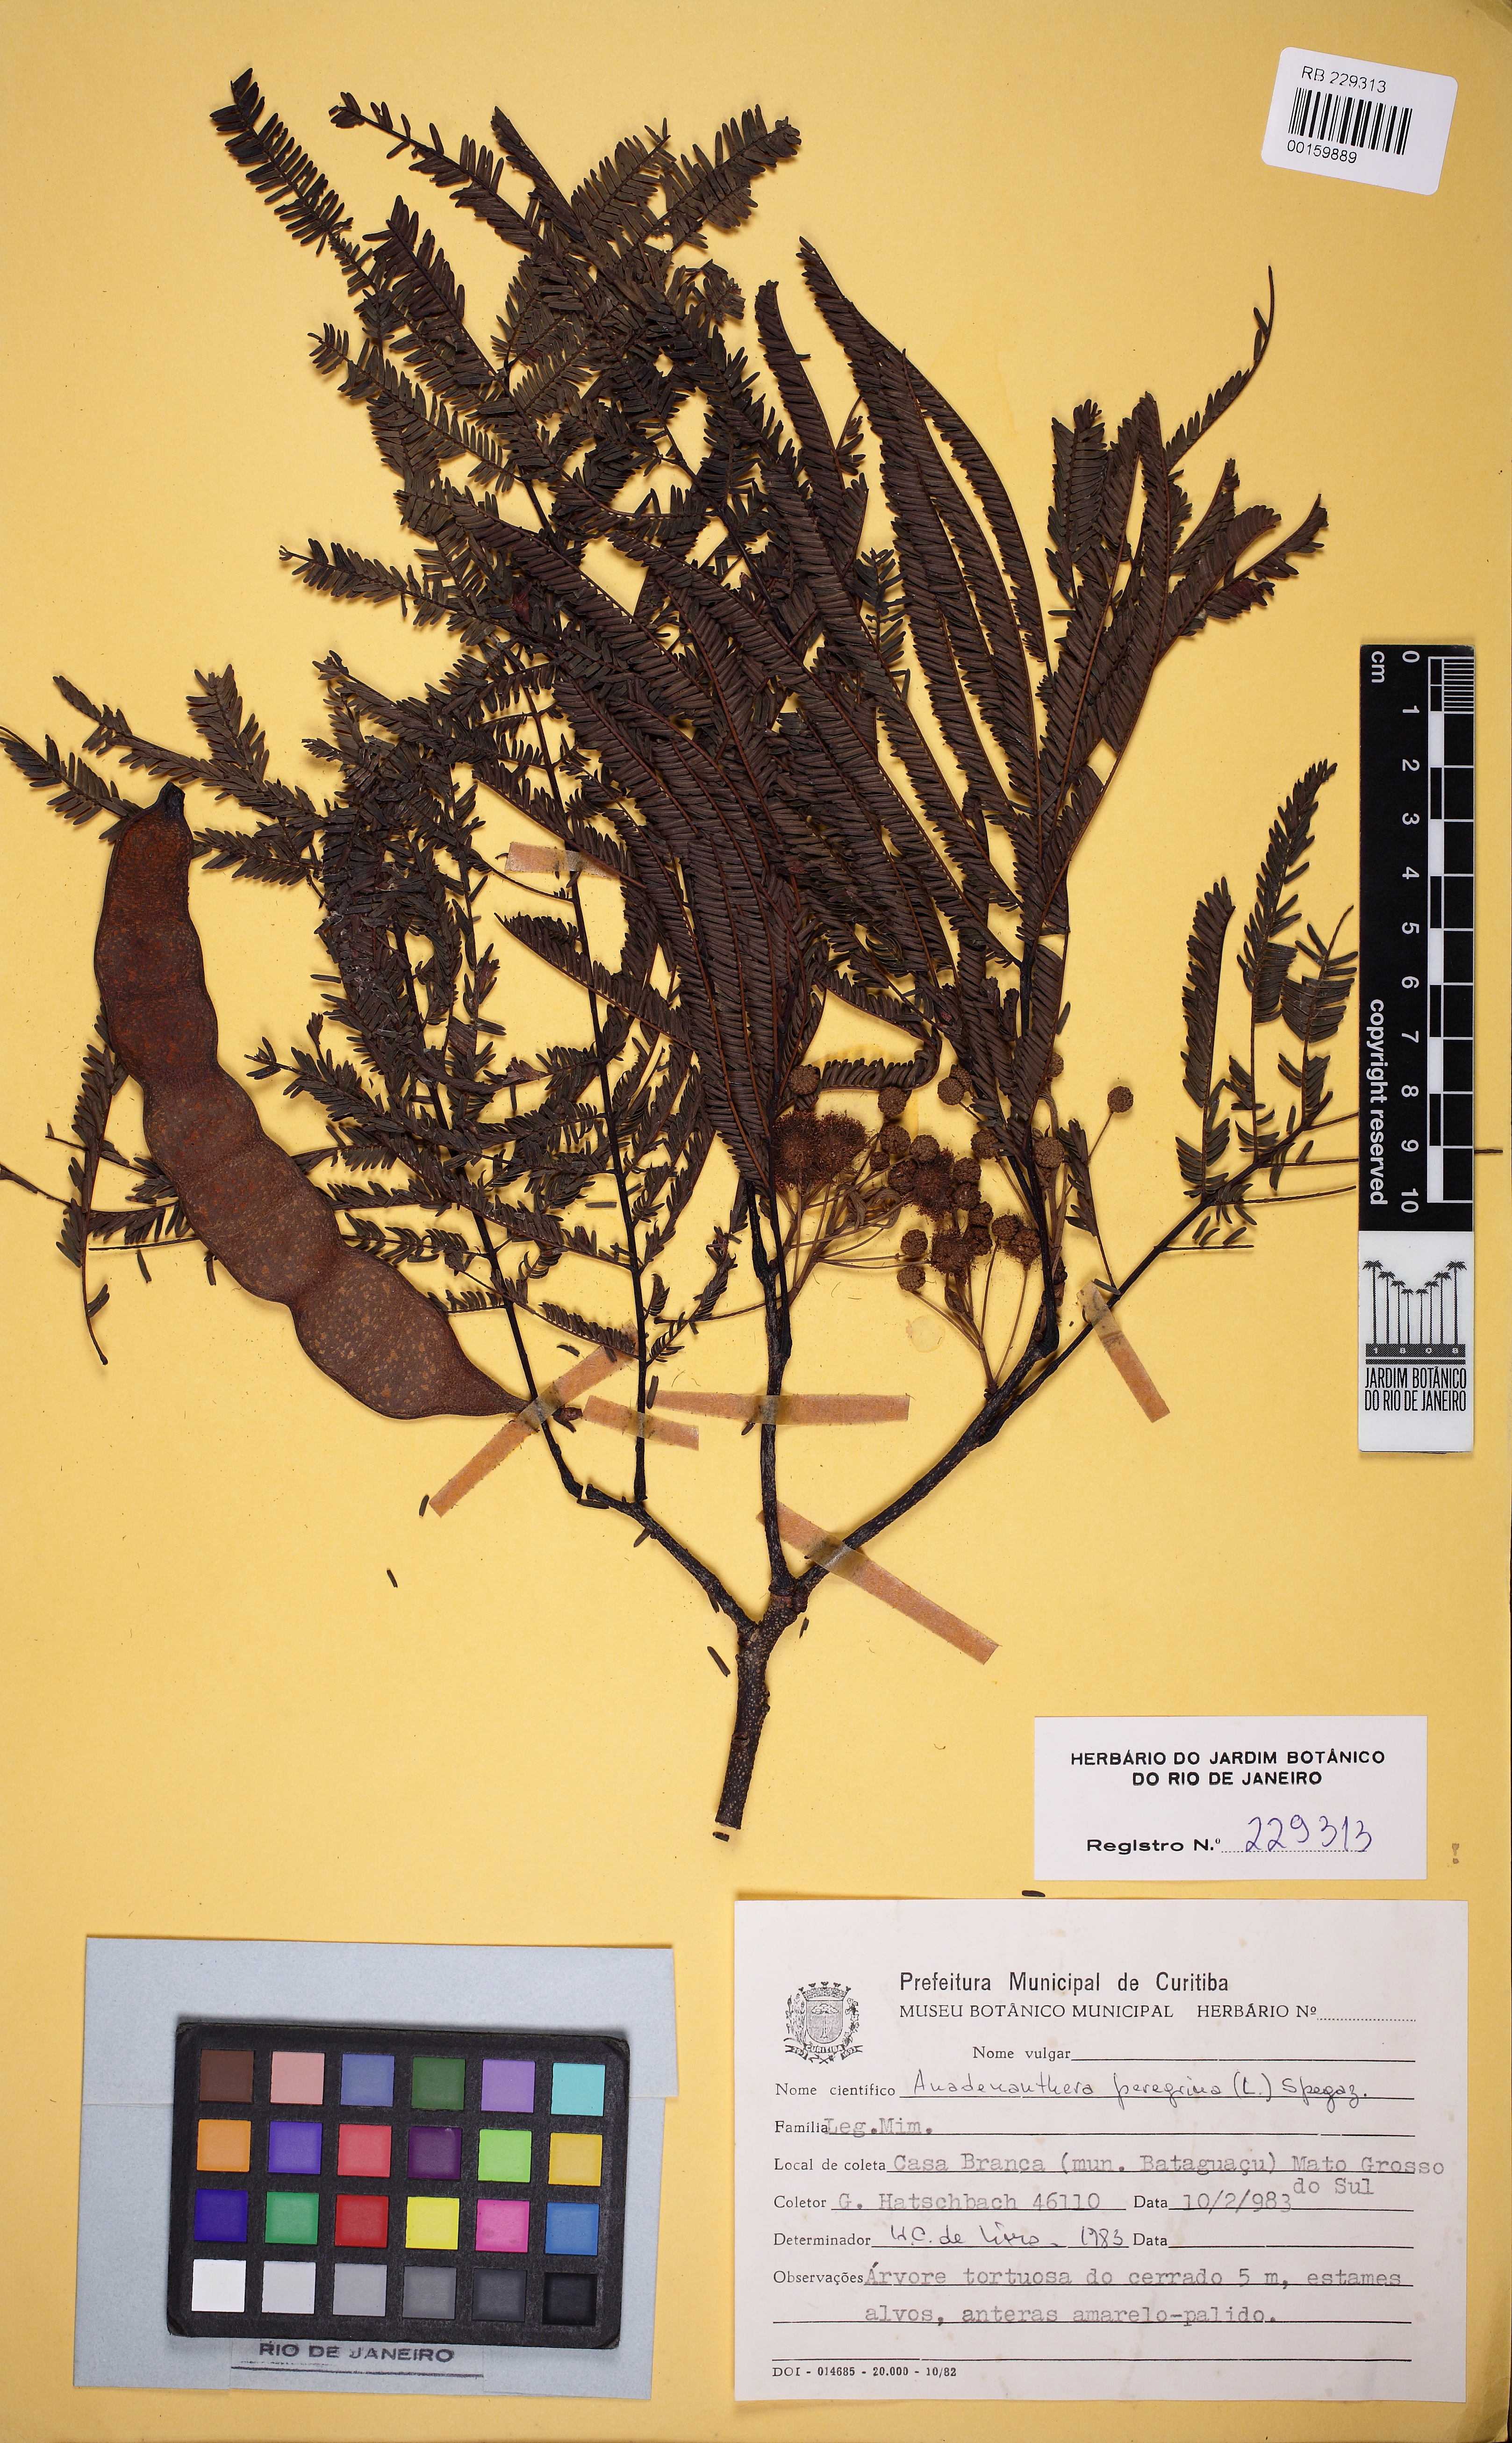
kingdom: Plantae
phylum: Tracheophyta
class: Magnoliopsida
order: Fabales
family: Fabaceae
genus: Anadenanthera
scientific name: Anadenanthera peregrina
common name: Cohoba
